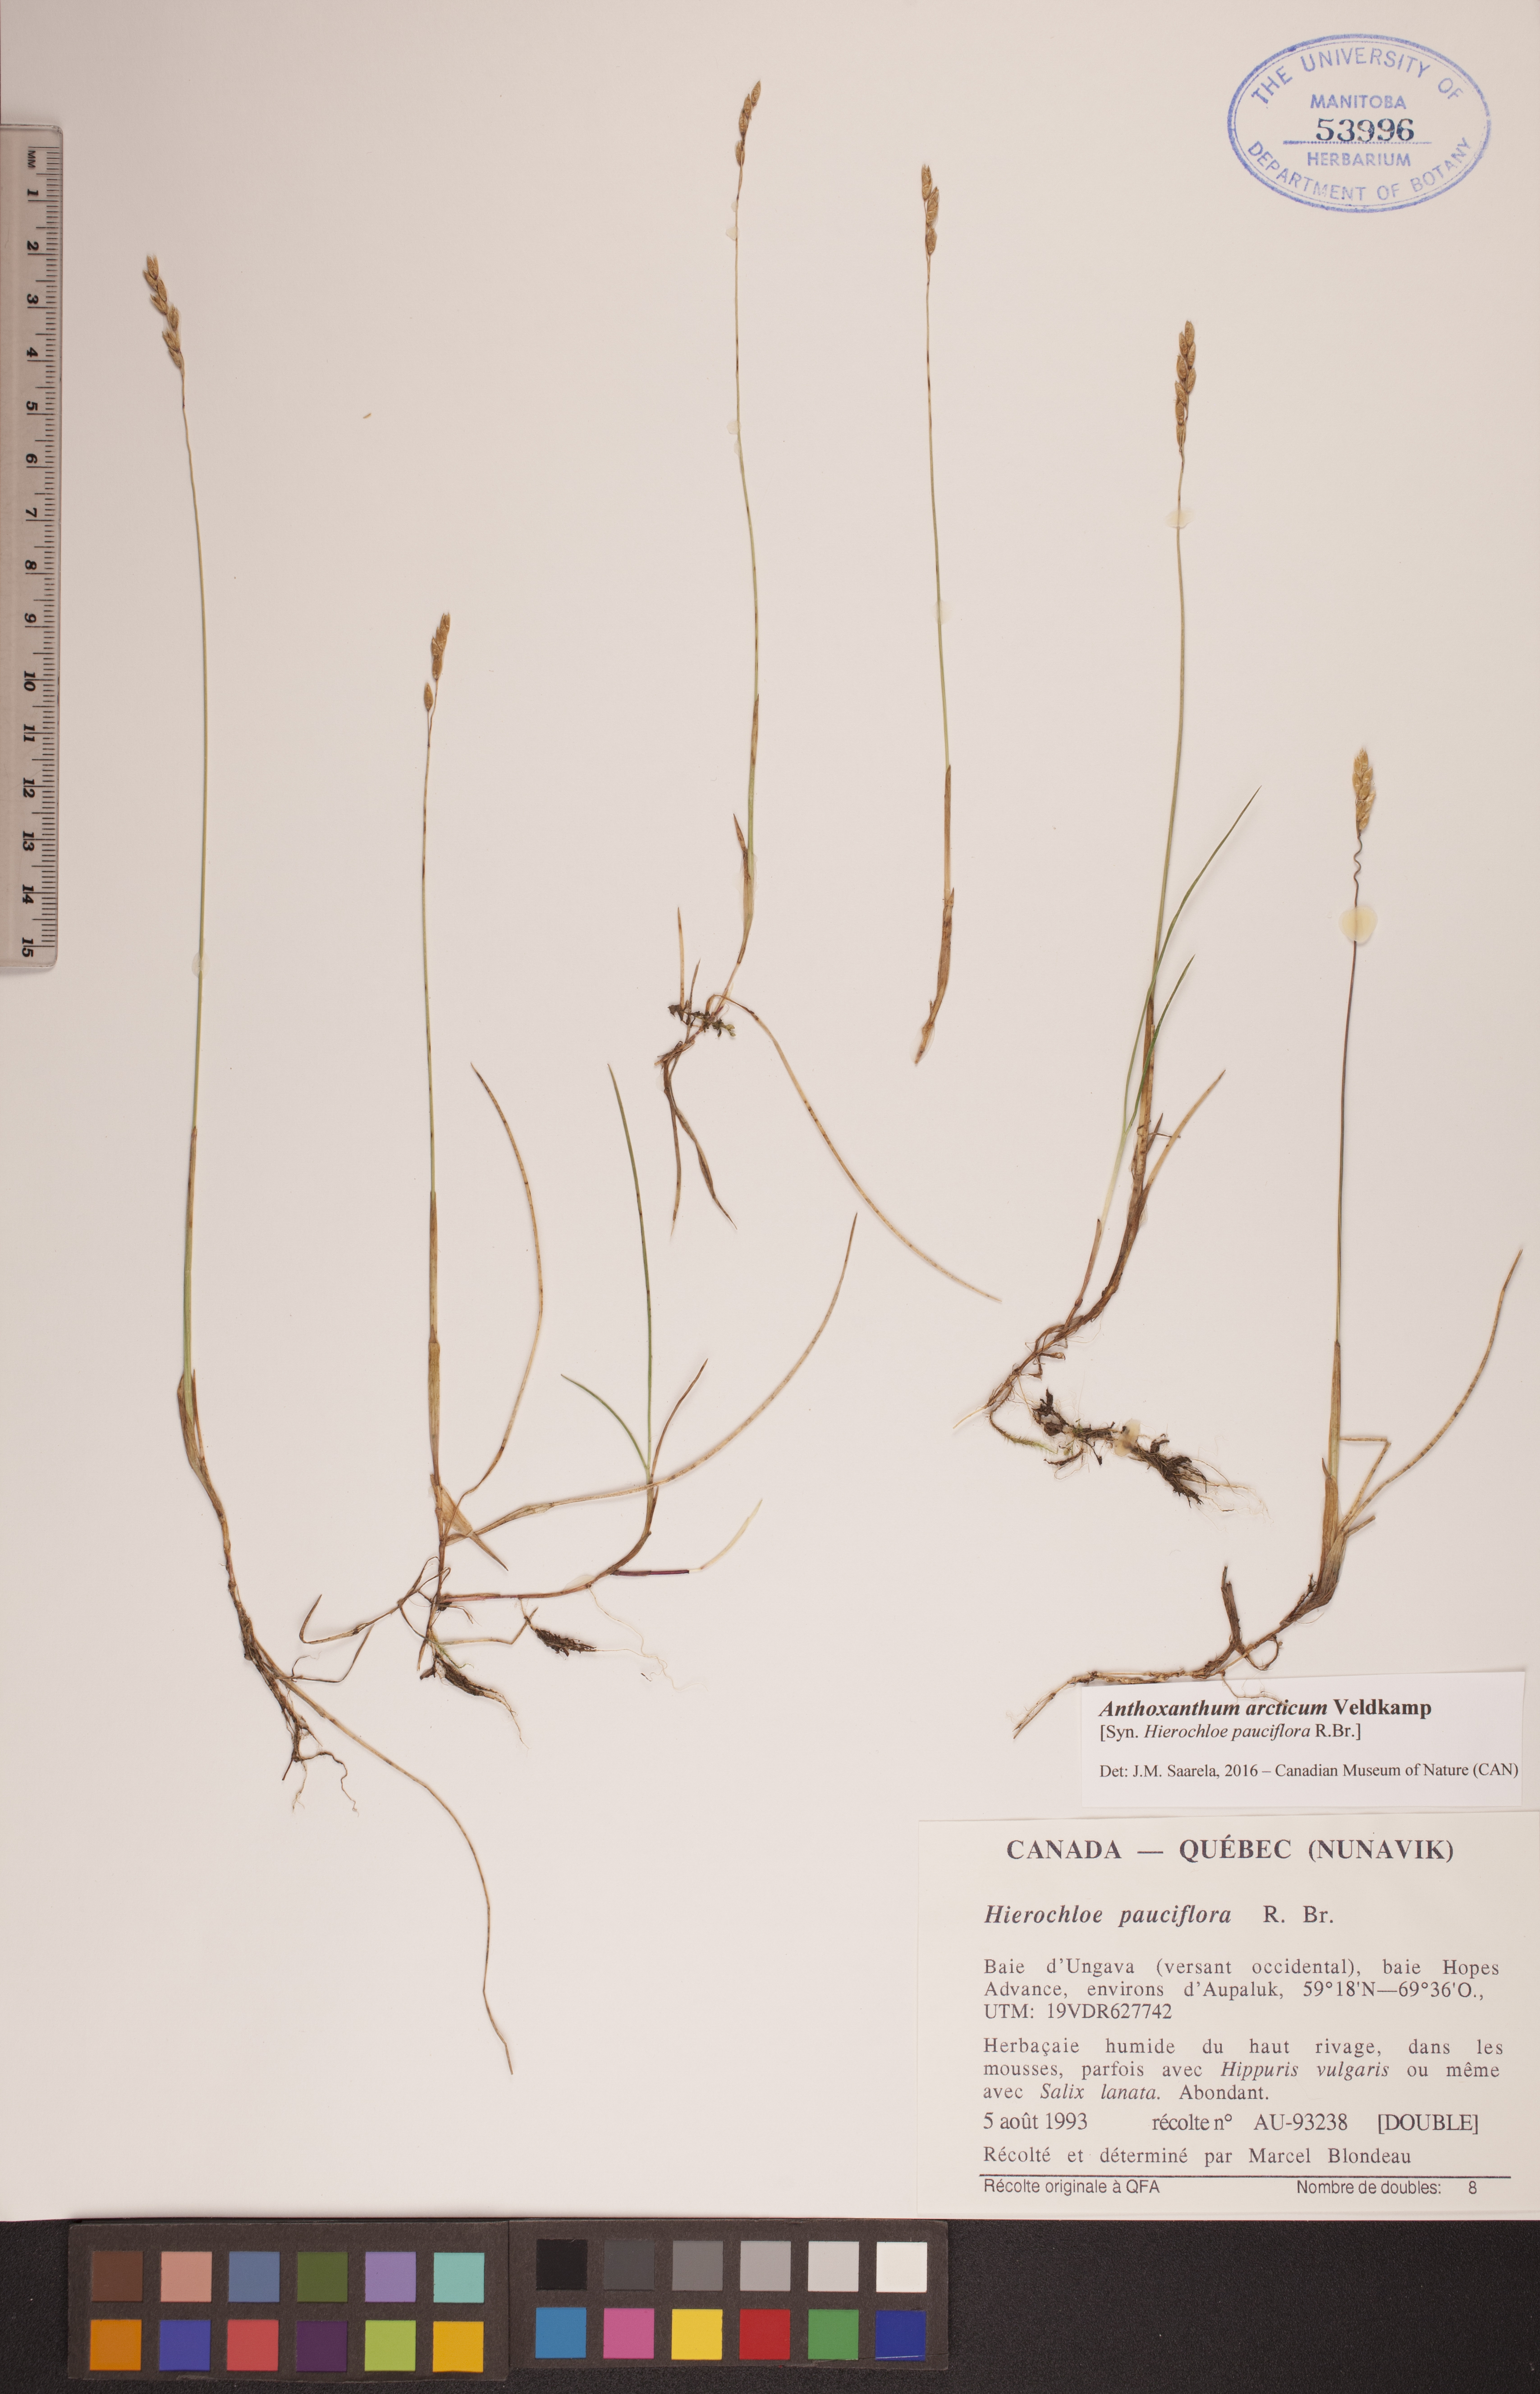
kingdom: Plantae
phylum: Tracheophyta
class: Liliopsida
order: Poales
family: Poaceae
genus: Anthoxanthum
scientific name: Anthoxanthum arcticum
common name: Arctic sweetgrass
